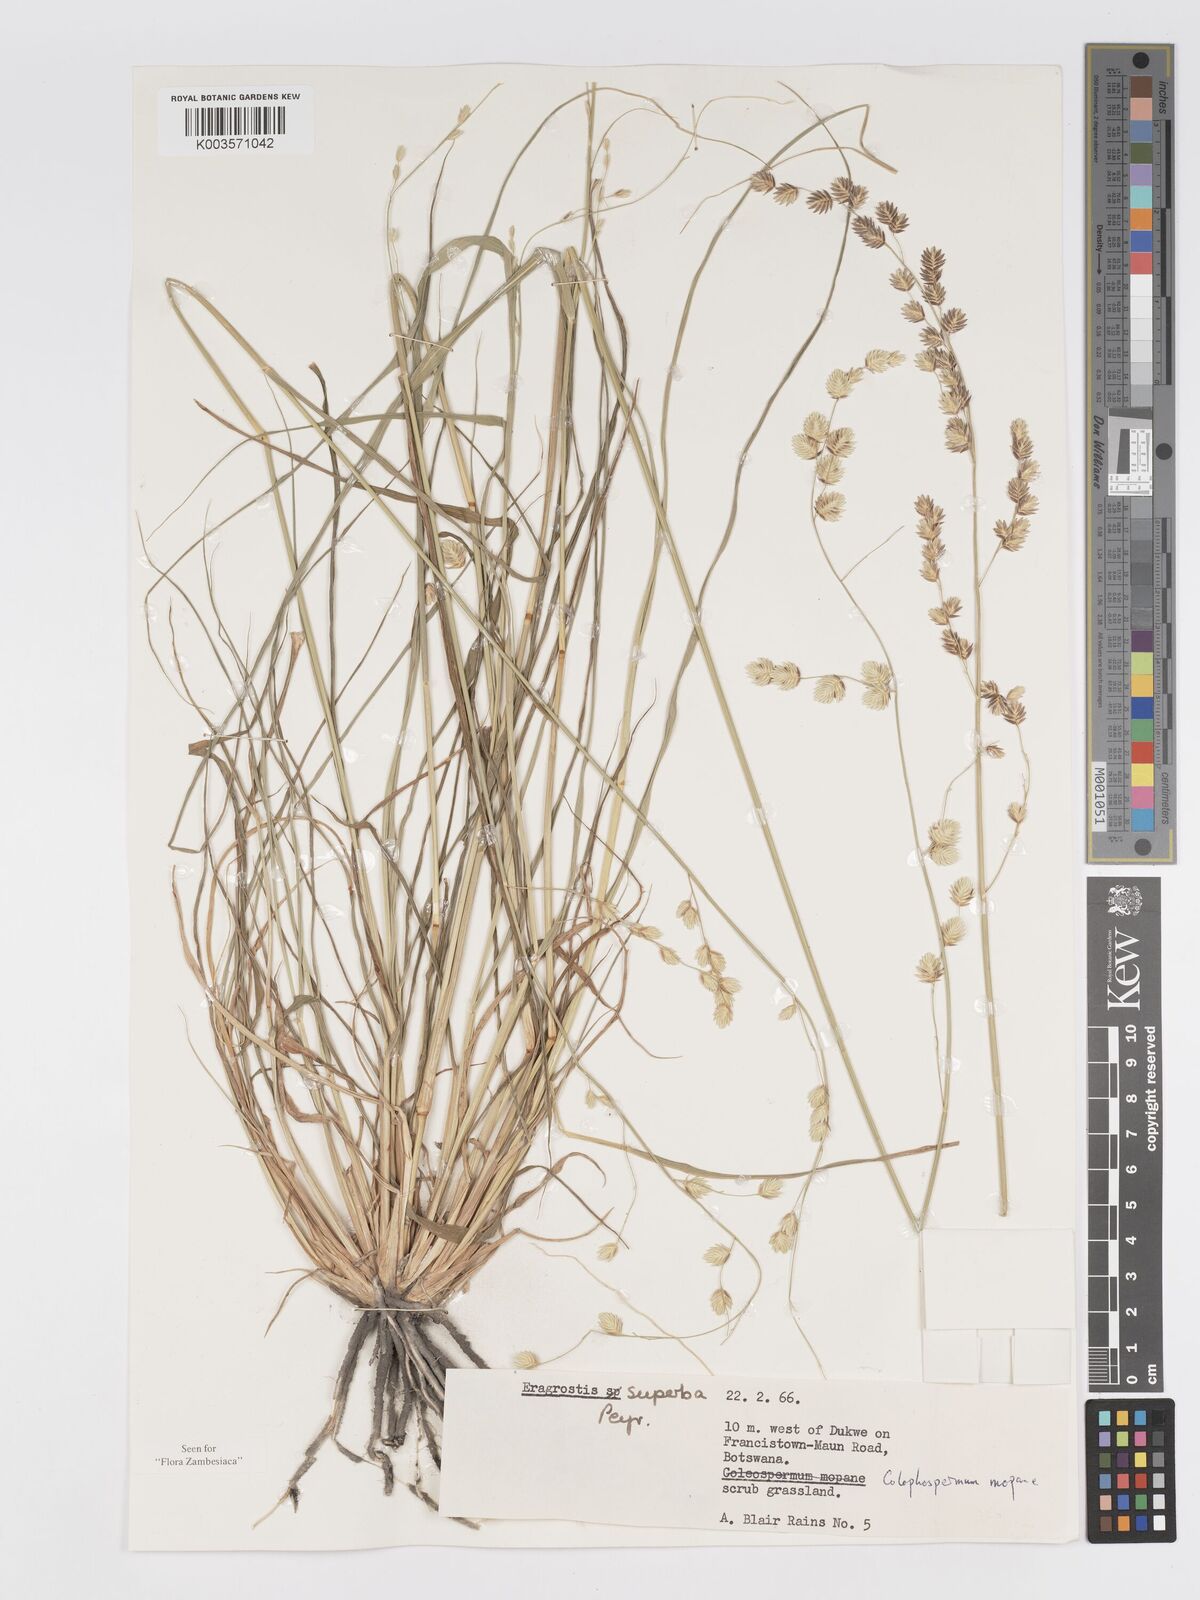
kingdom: Plantae
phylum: Tracheophyta
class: Liliopsida
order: Poales
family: Poaceae
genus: Eragrostis
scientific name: Eragrostis superba
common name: Wilman lovegrass
